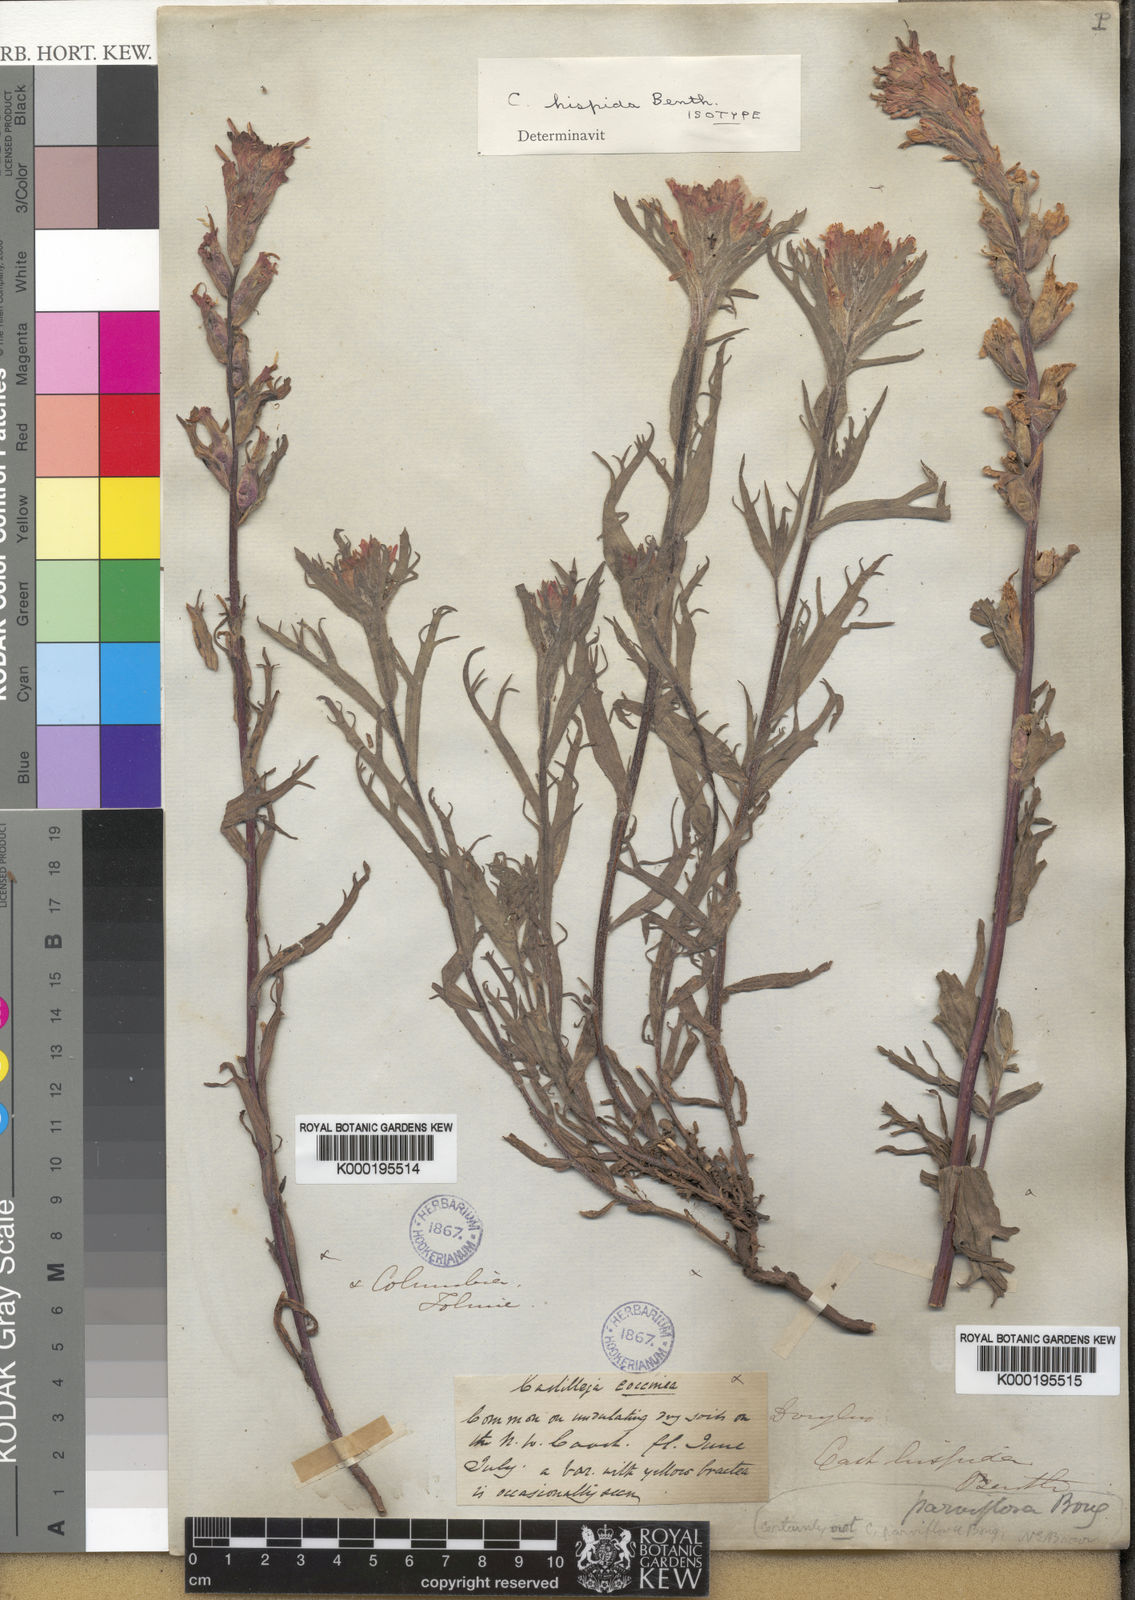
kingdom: Plantae
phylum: Tracheophyta
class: Magnoliopsida
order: Lamiales
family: Orobanchaceae
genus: Castilleja
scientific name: Castilleja hispida
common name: Bristly paintbrush
